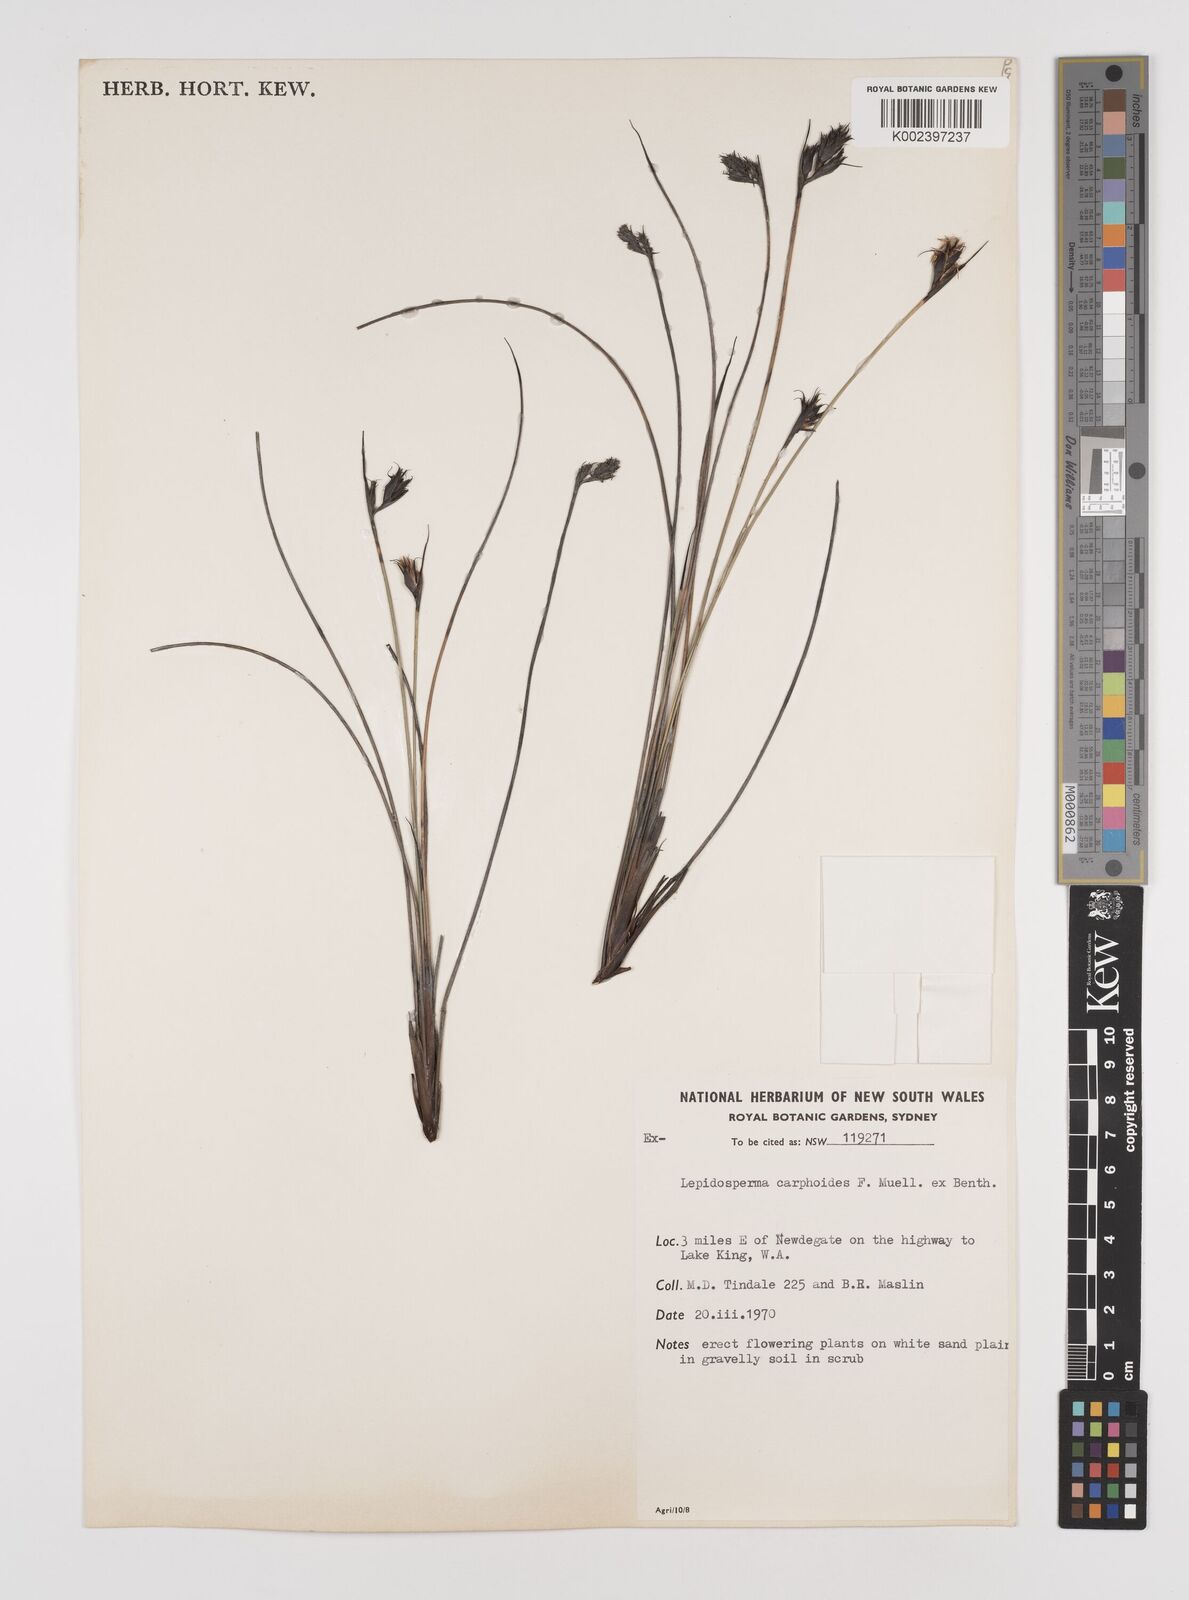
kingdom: Plantae
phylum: Tracheophyta
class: Liliopsida
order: Poales
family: Cyperaceae
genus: Lepidosperma
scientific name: Lepidosperma carphoides
